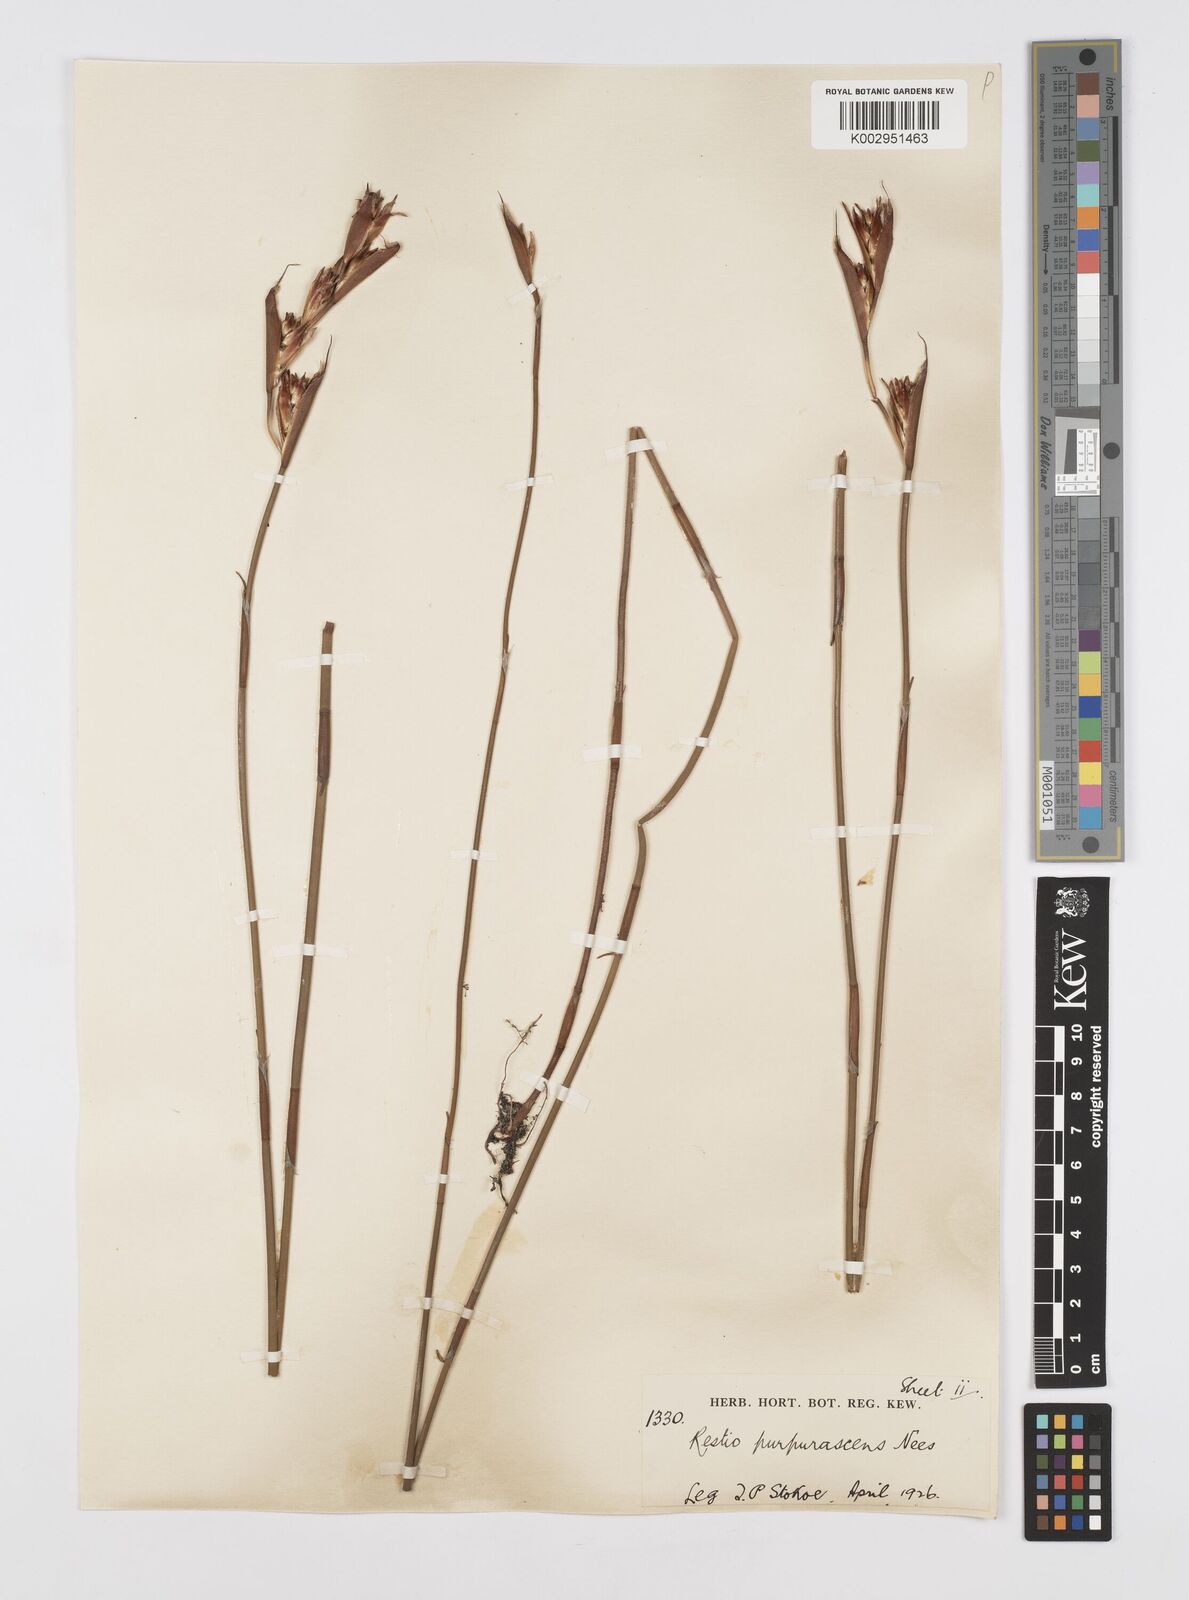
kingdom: Plantae
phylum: Tracheophyta
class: Liliopsida
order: Poales
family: Restionaceae
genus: Restio
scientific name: Restio purpurascens
